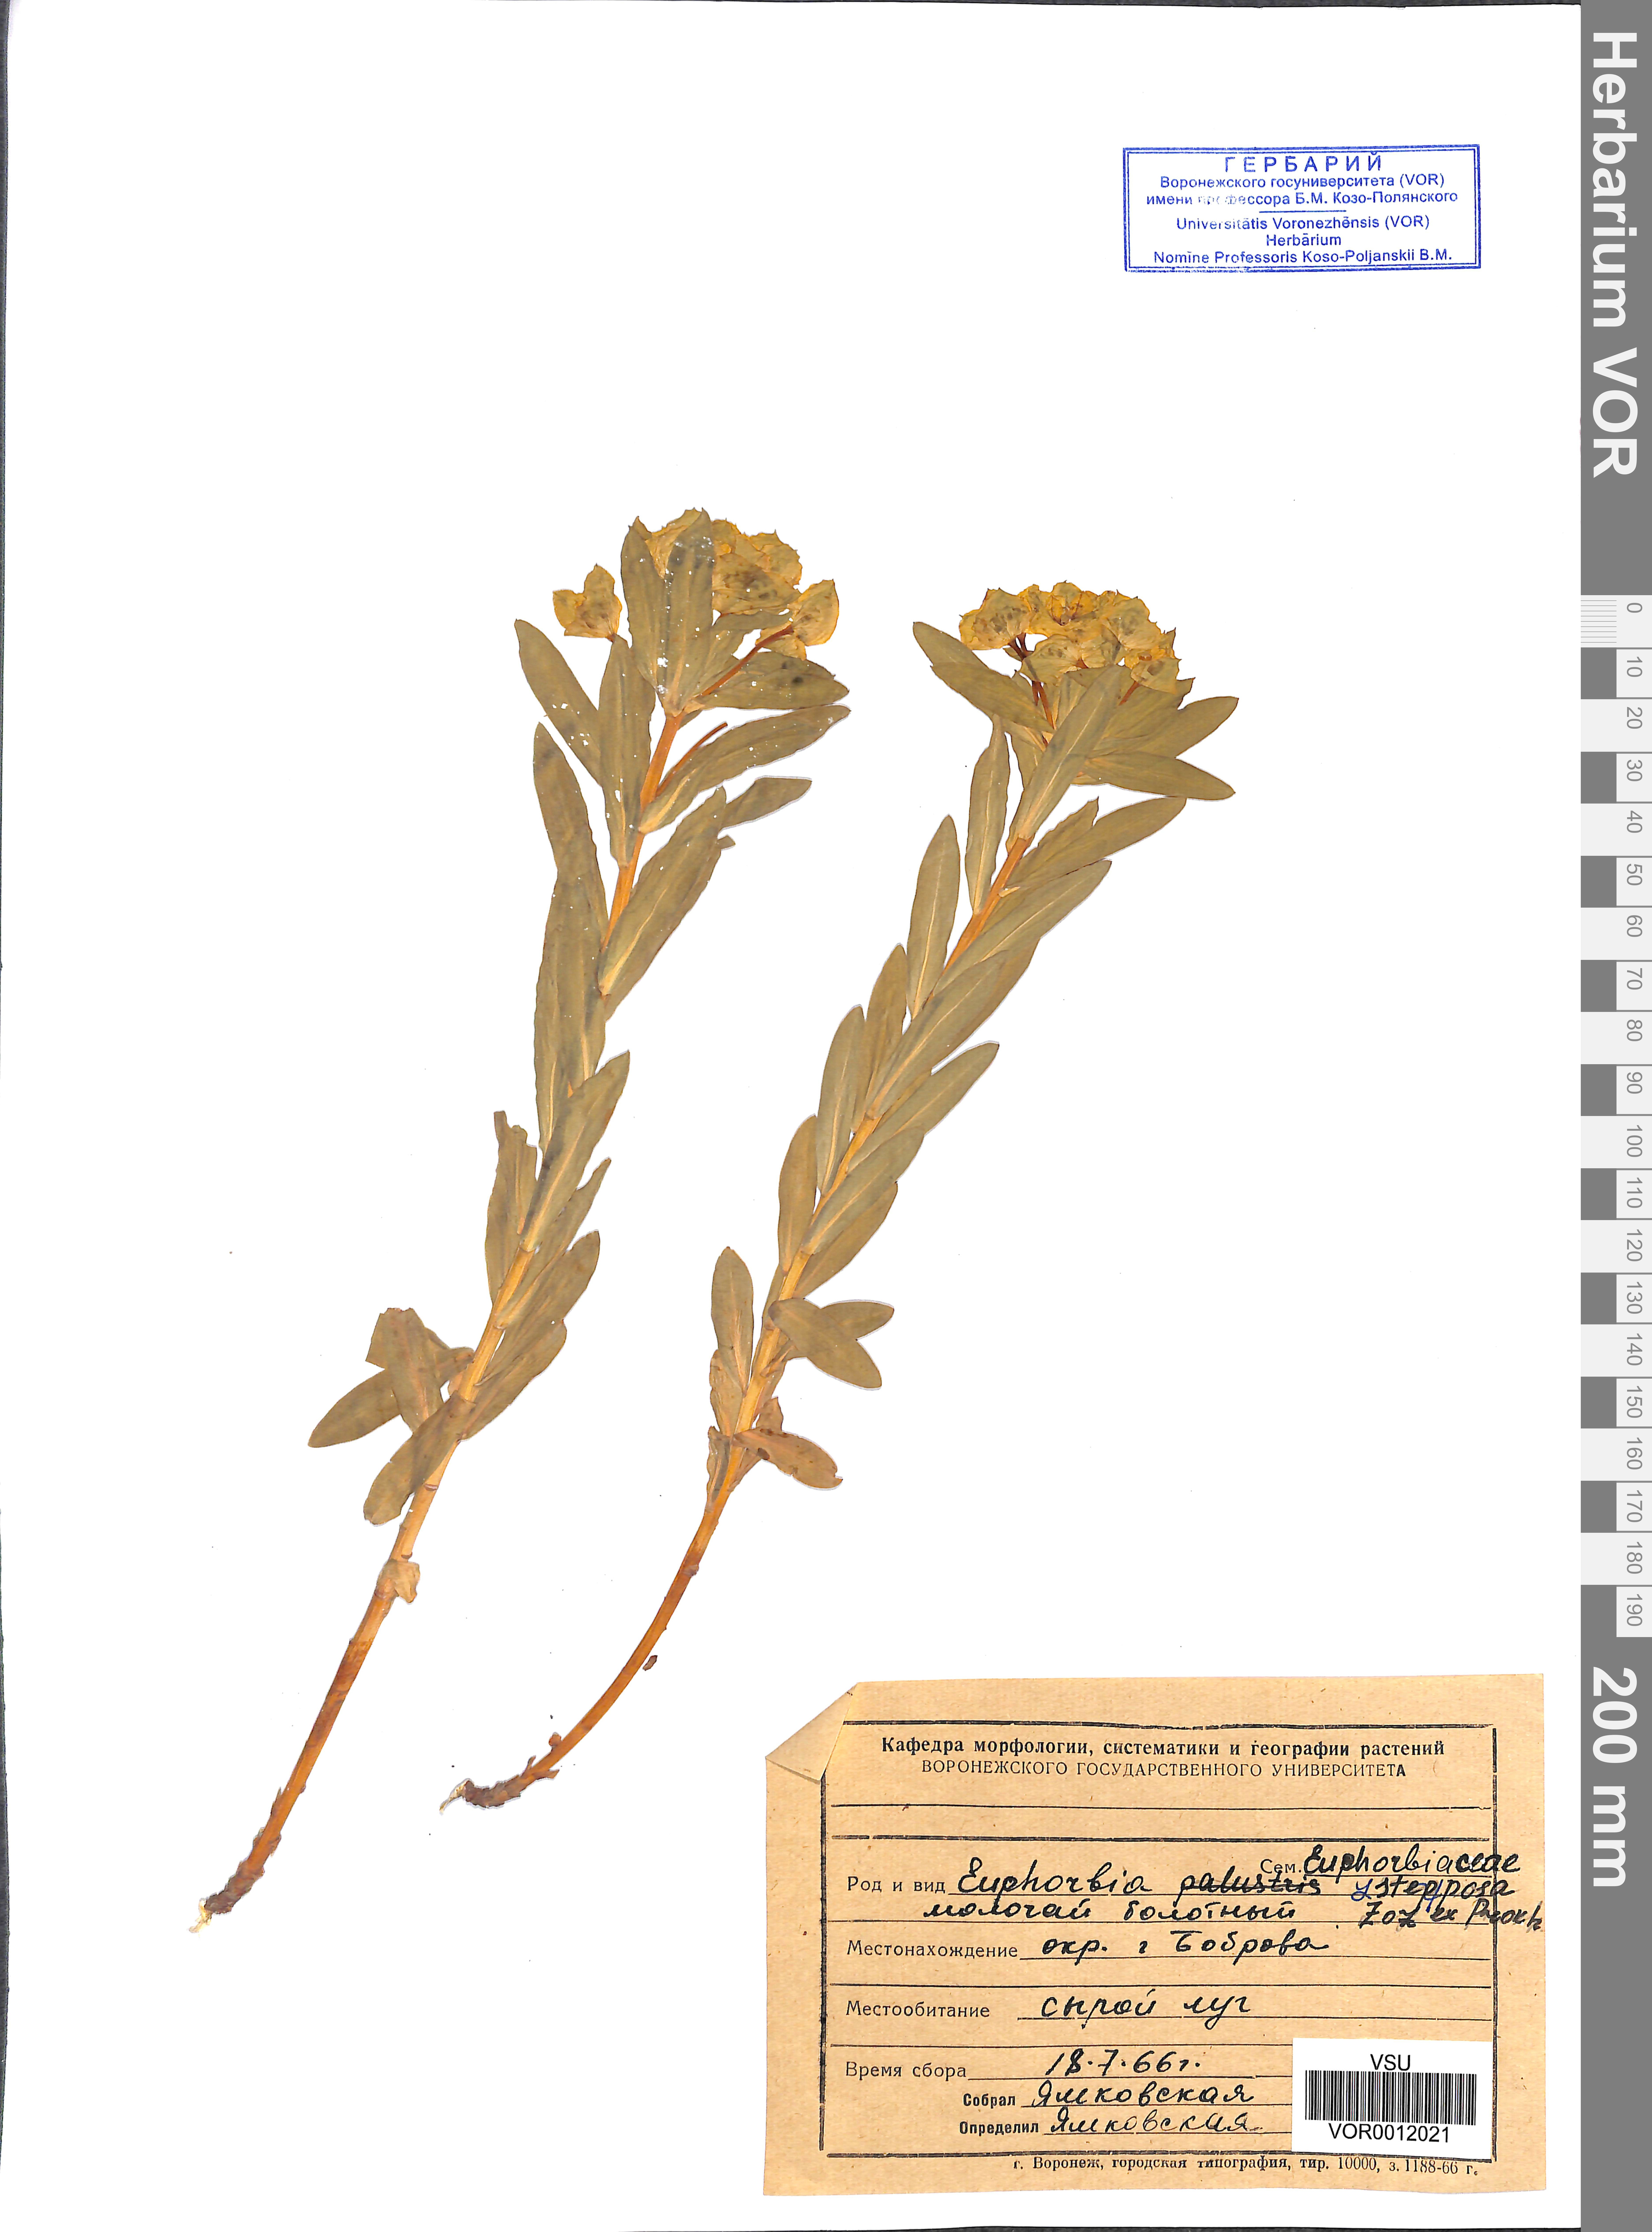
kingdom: Plantae
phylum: Tracheophyta
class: Magnoliopsida
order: Malpighiales
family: Euphorbiaceae
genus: Euphorbia
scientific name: Euphorbia stepposa
